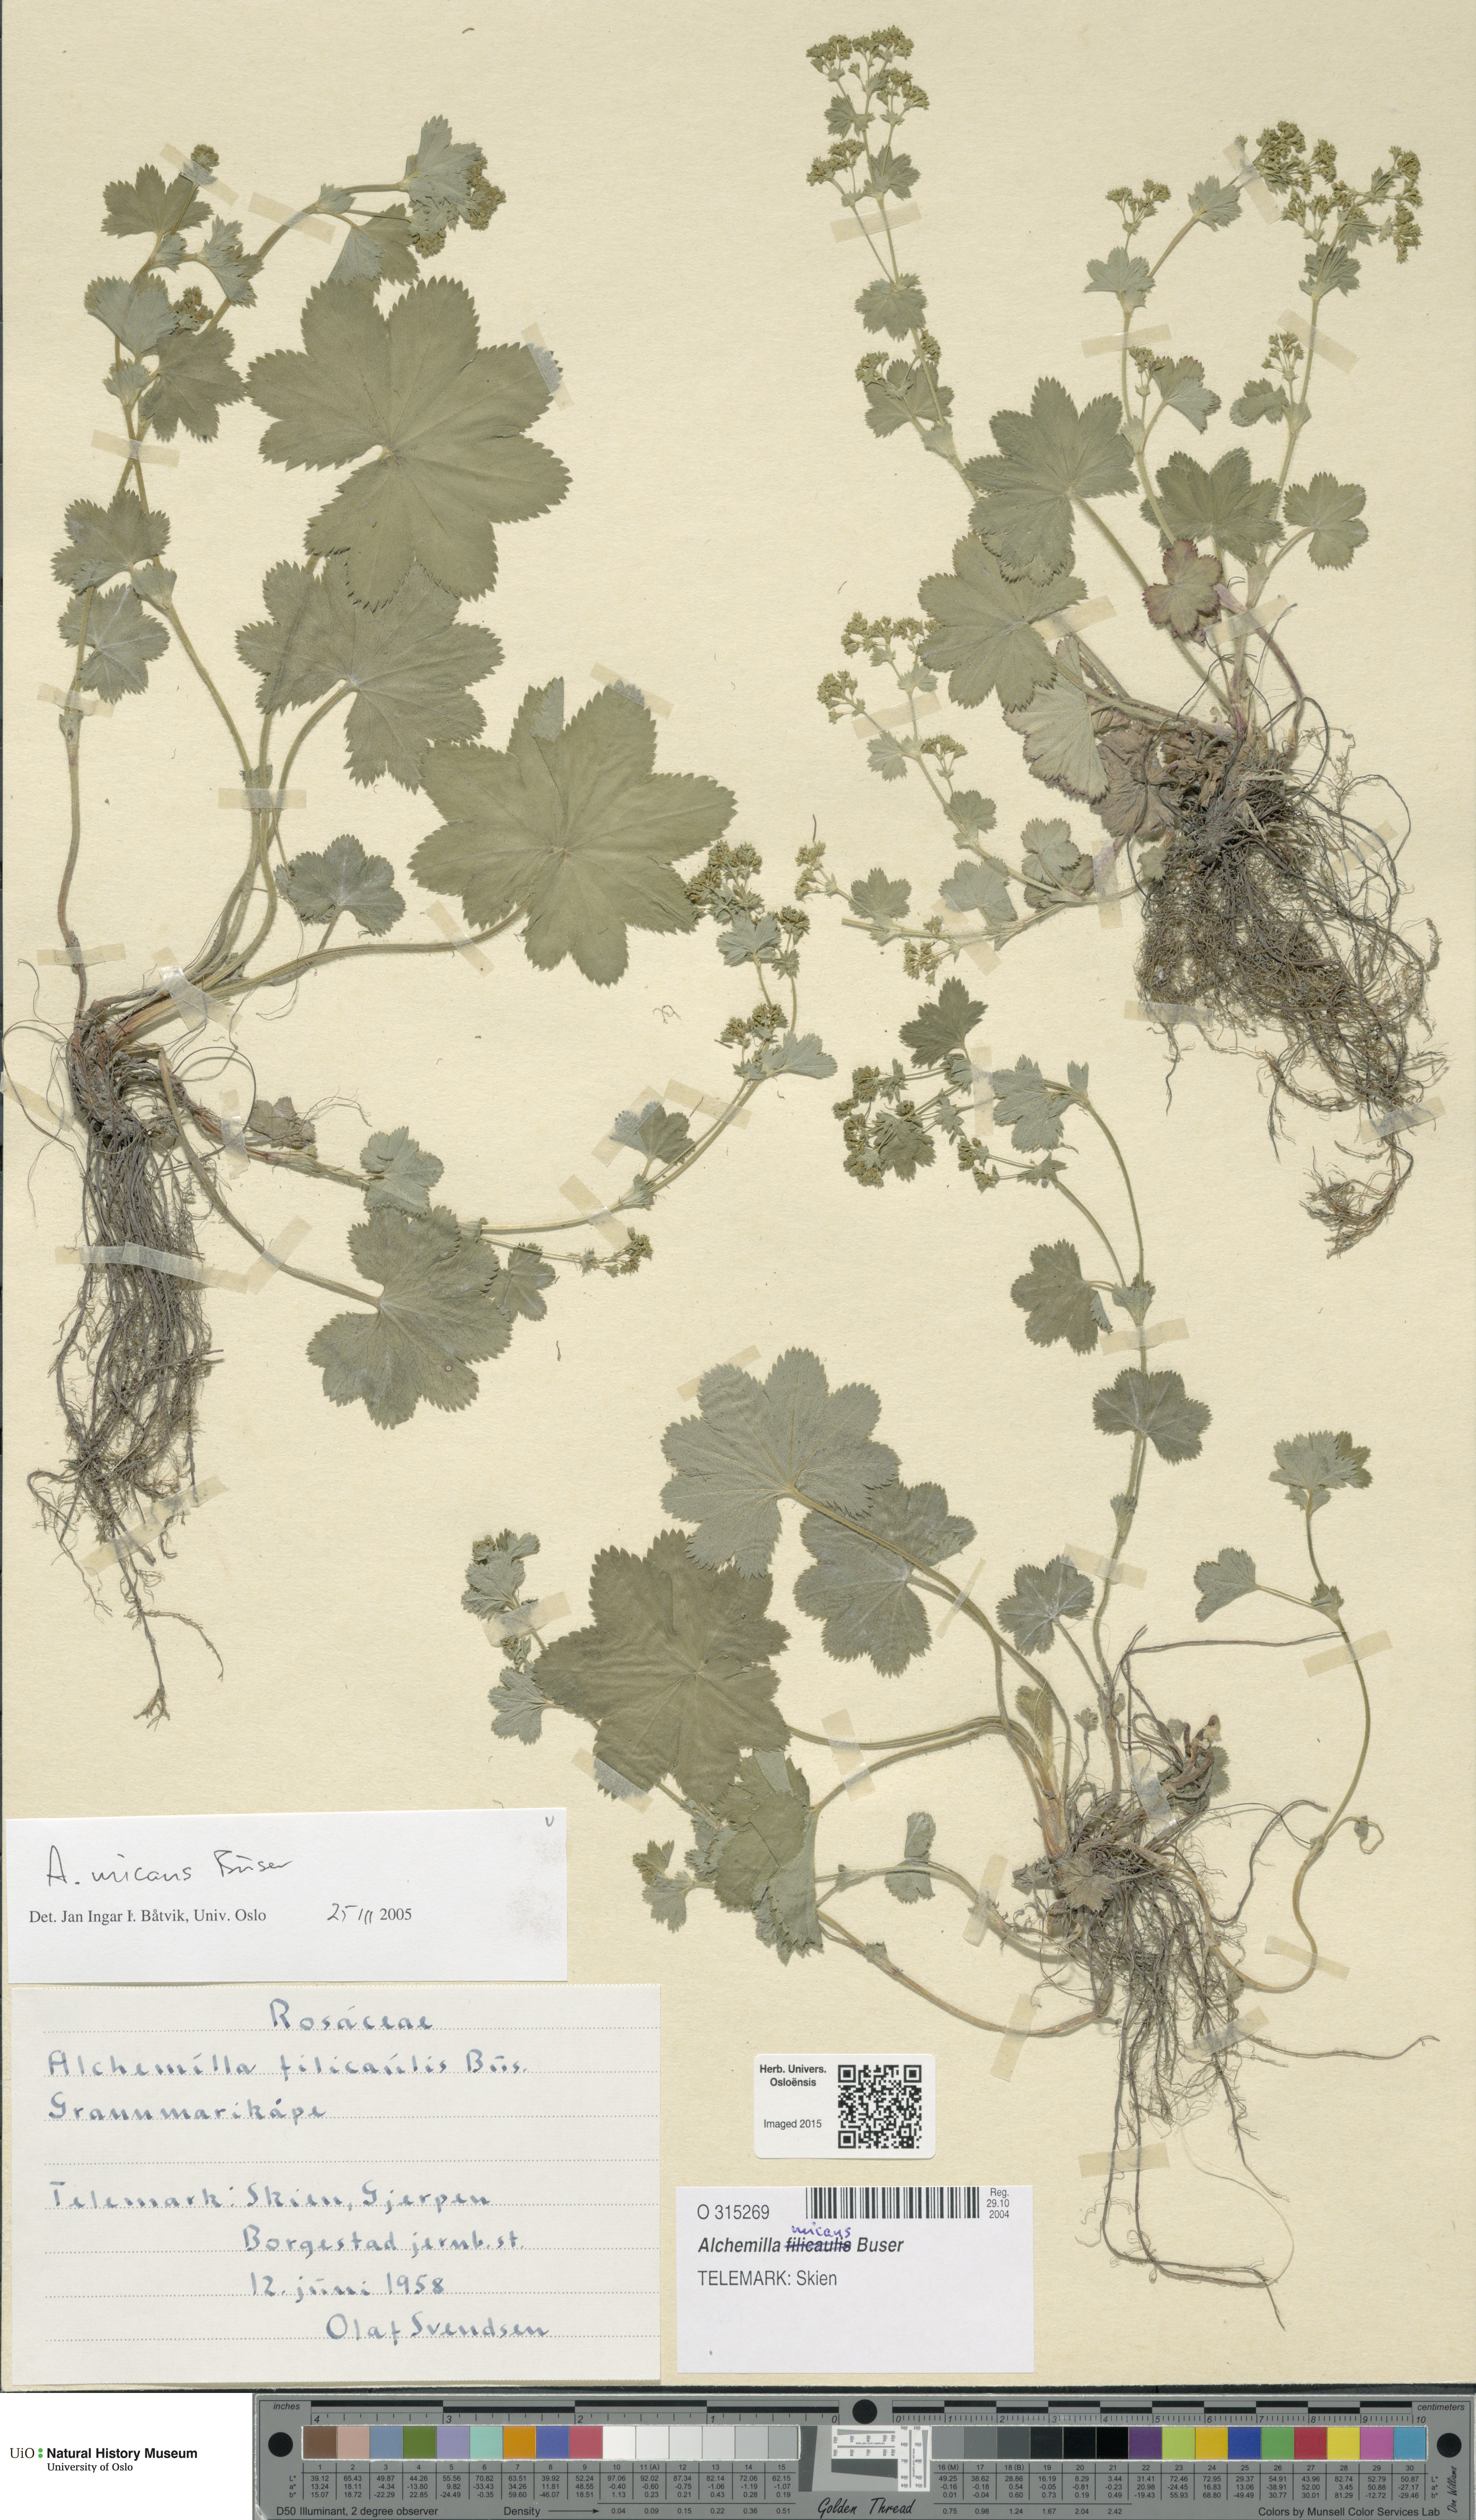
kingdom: Plantae
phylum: Tracheophyta
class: Magnoliopsida
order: Rosales
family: Rosaceae
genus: Alchemilla
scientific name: Alchemilla micans
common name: Gleaming lady's mantle
